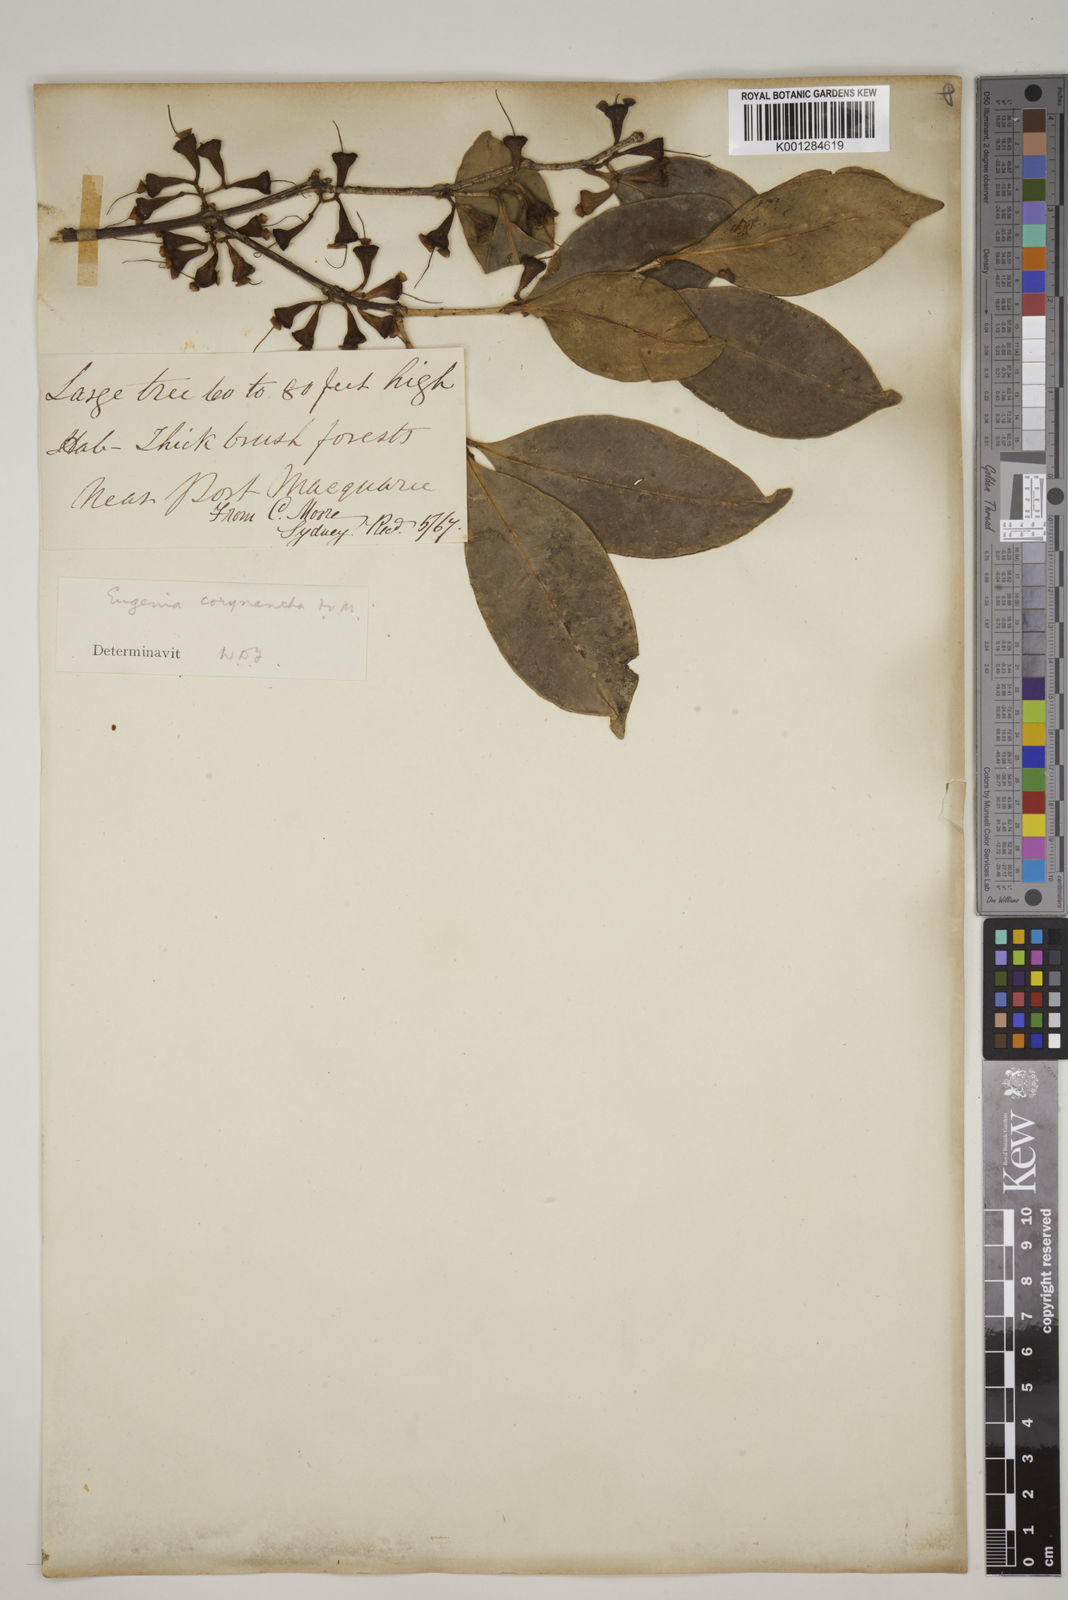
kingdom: Plantae
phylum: Tracheophyta
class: Magnoliopsida
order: Myrtales
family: Myrtaceae
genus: Syzygium
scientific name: Syzygium corynanthum
